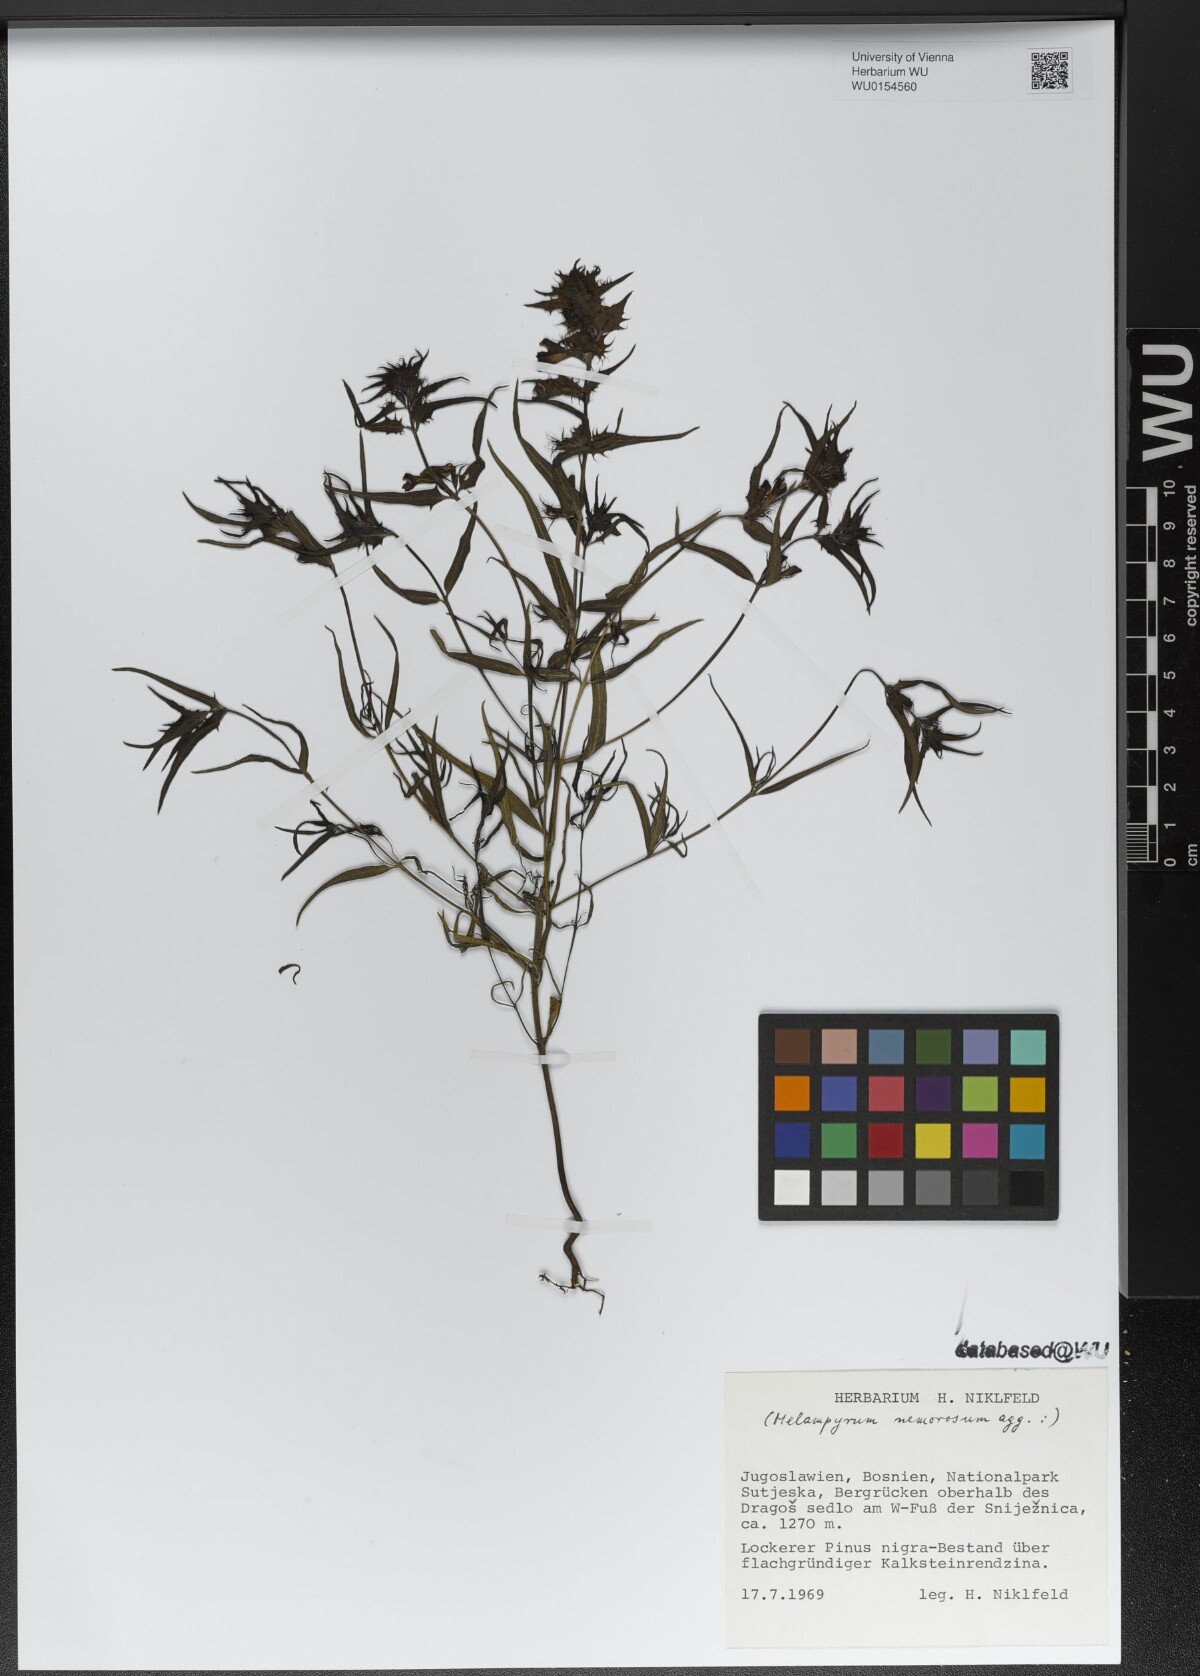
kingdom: Plantae
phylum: Tracheophyta
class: Magnoliopsida
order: Lamiales
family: Orobanchaceae
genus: Melampyrum
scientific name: Melampyrum nemorosum
